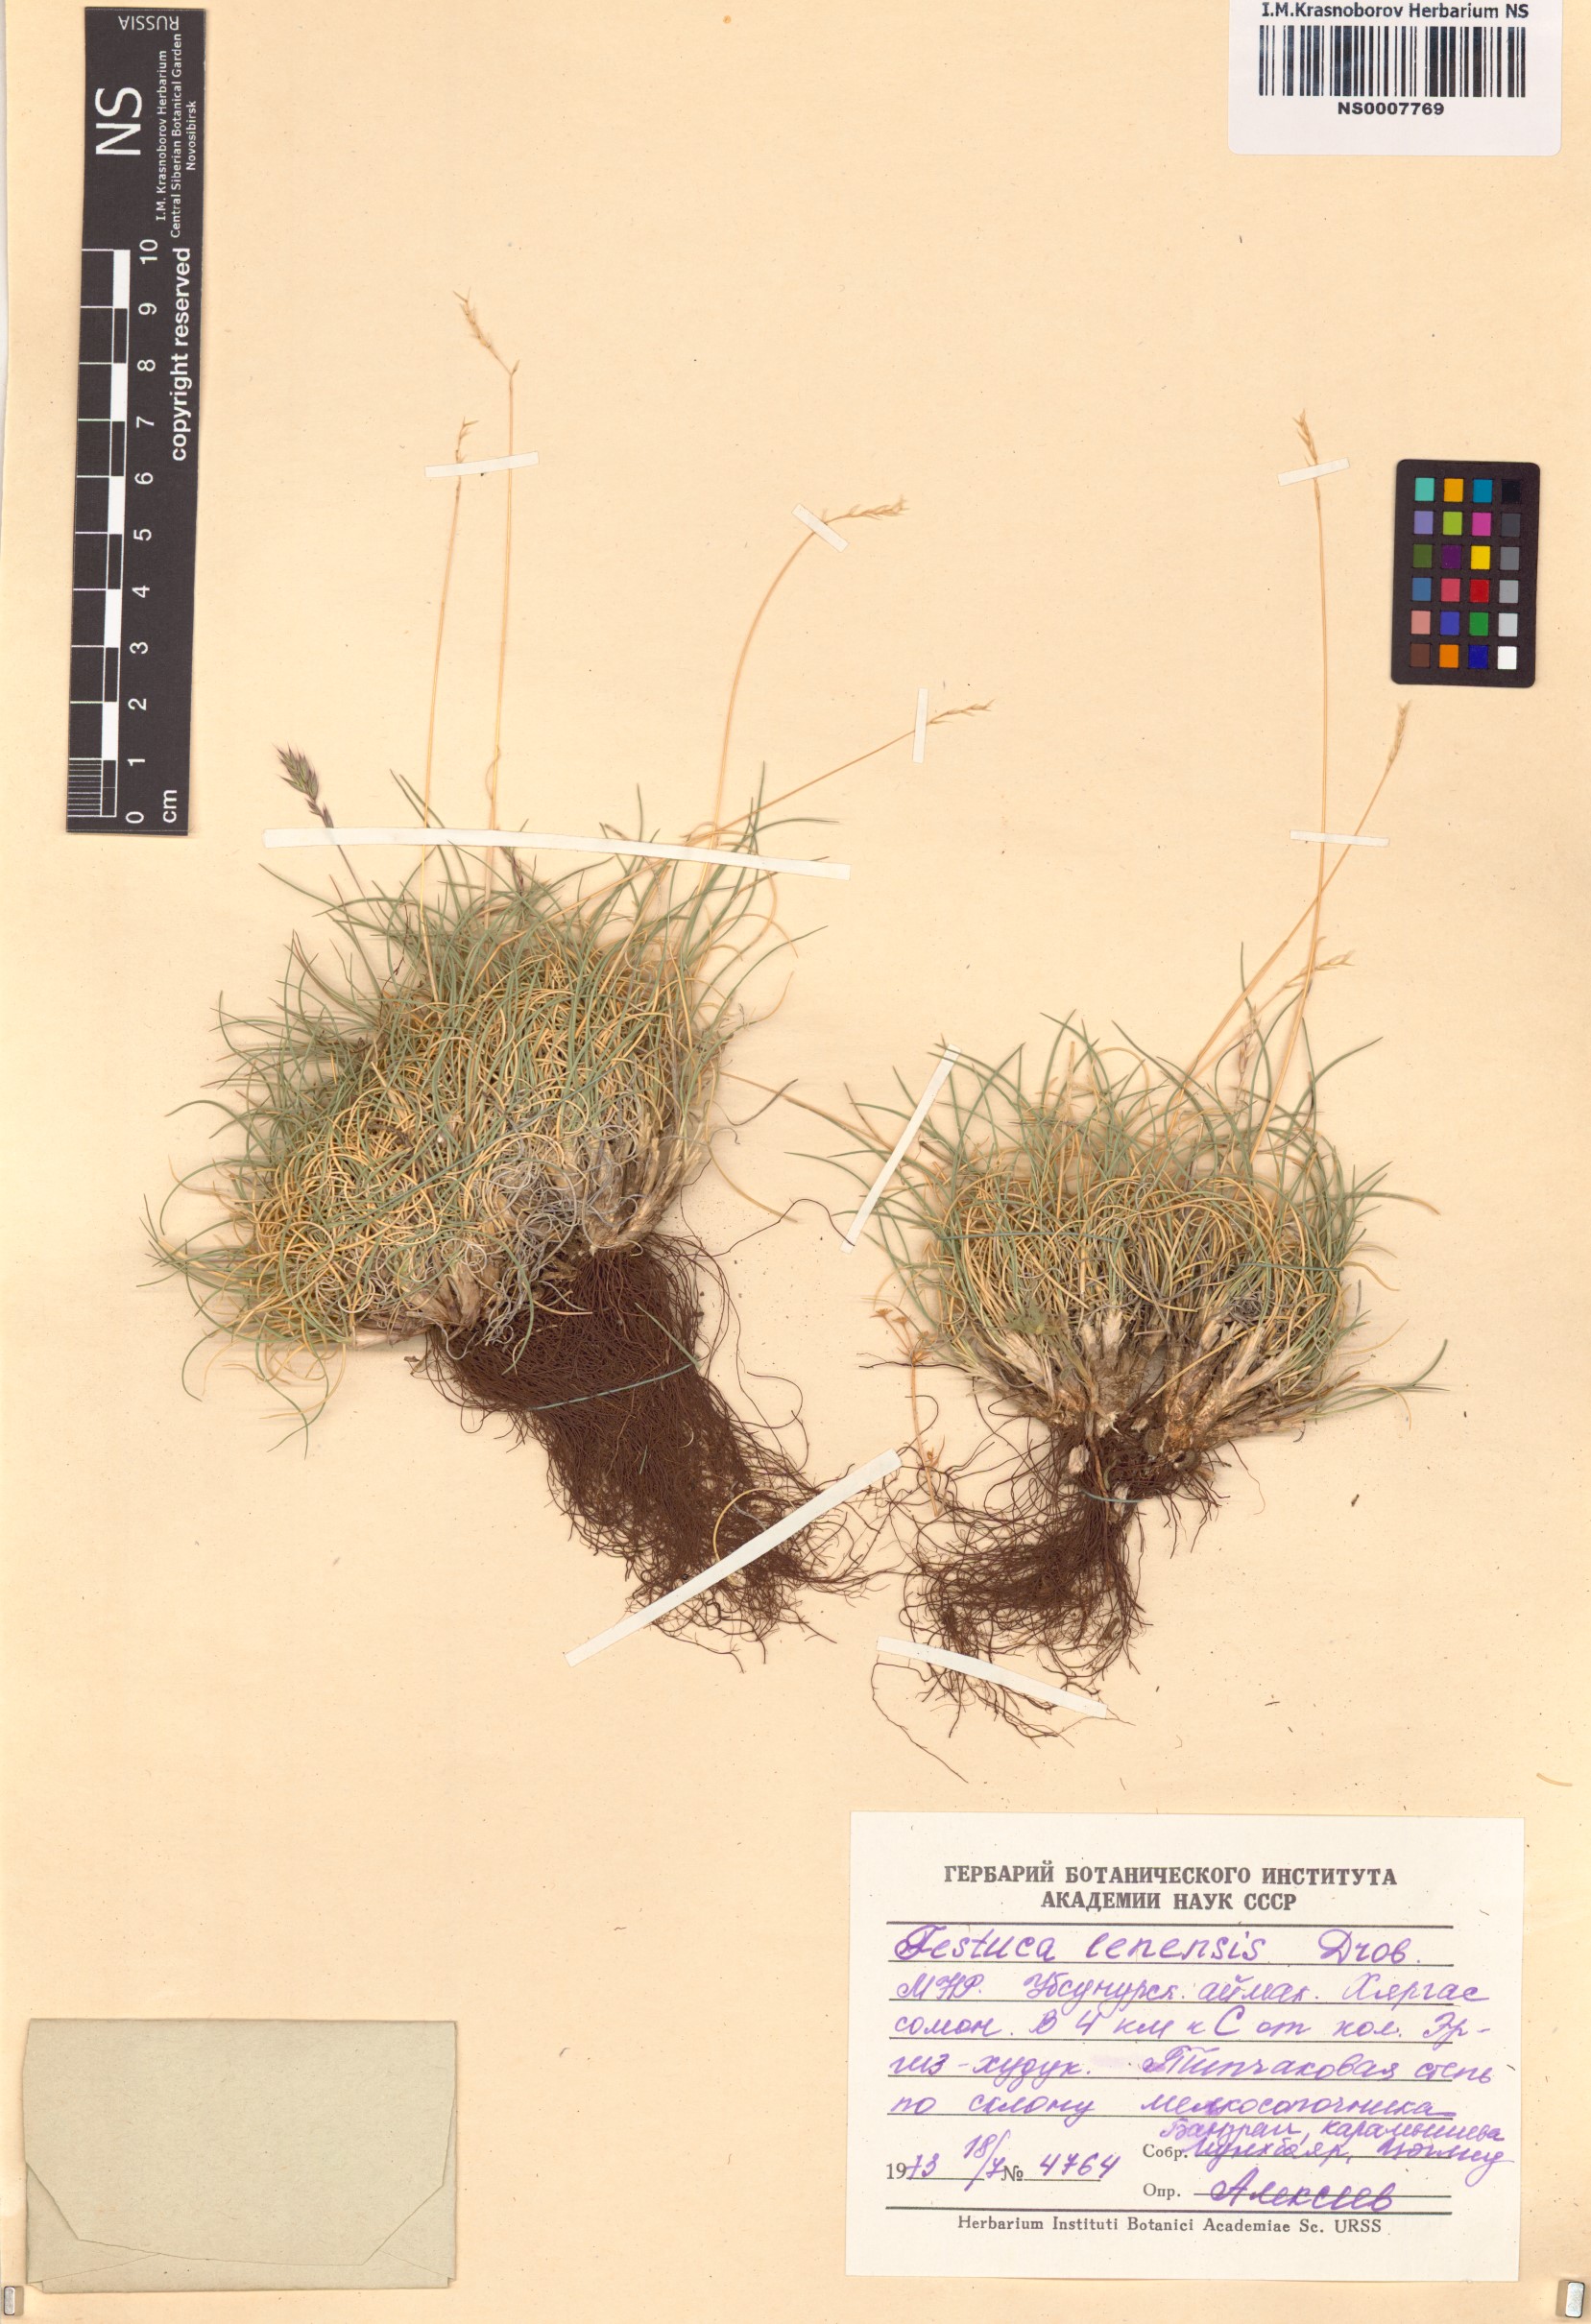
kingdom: Plantae
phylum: Tracheophyta
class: Liliopsida
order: Poales
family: Poaceae
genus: Festuca
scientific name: Festuca lenensis
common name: Lena river fescue
